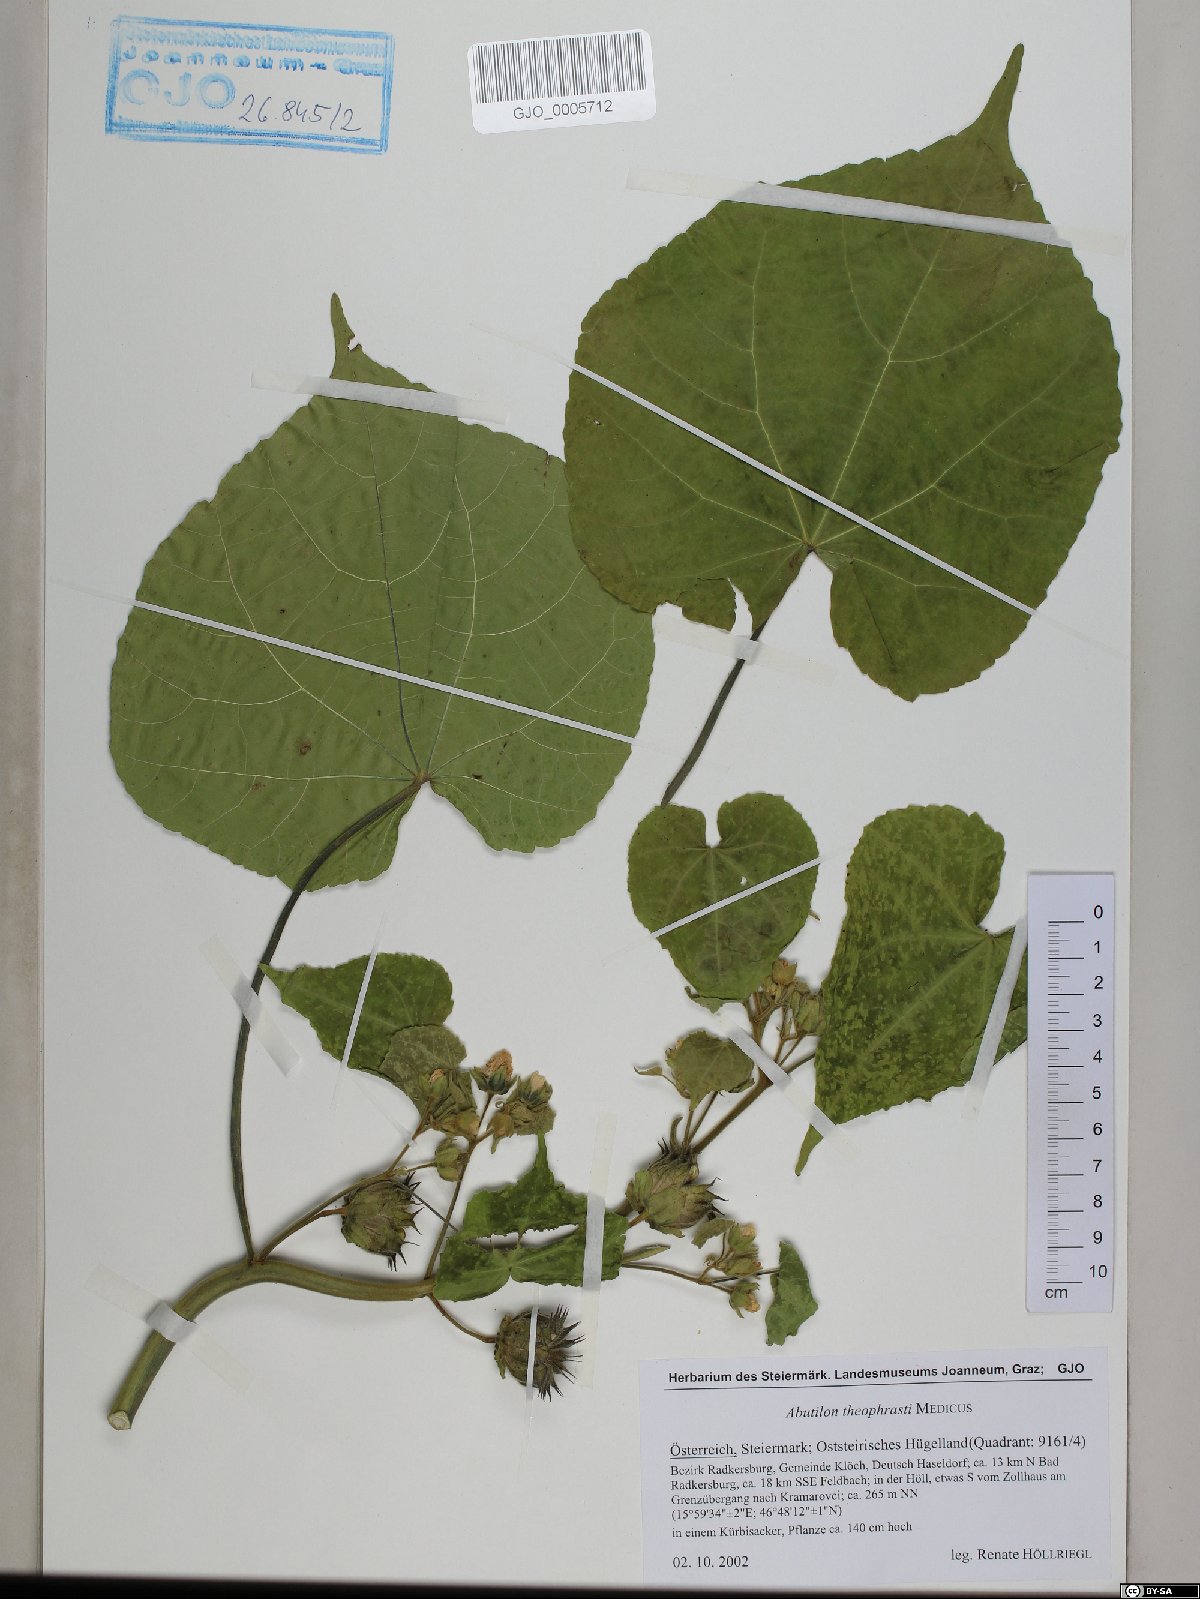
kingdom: Plantae
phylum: Tracheophyta
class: Magnoliopsida
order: Malvales
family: Malvaceae
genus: Abutilon
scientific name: Abutilon theophrasti
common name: Velvetleaf
